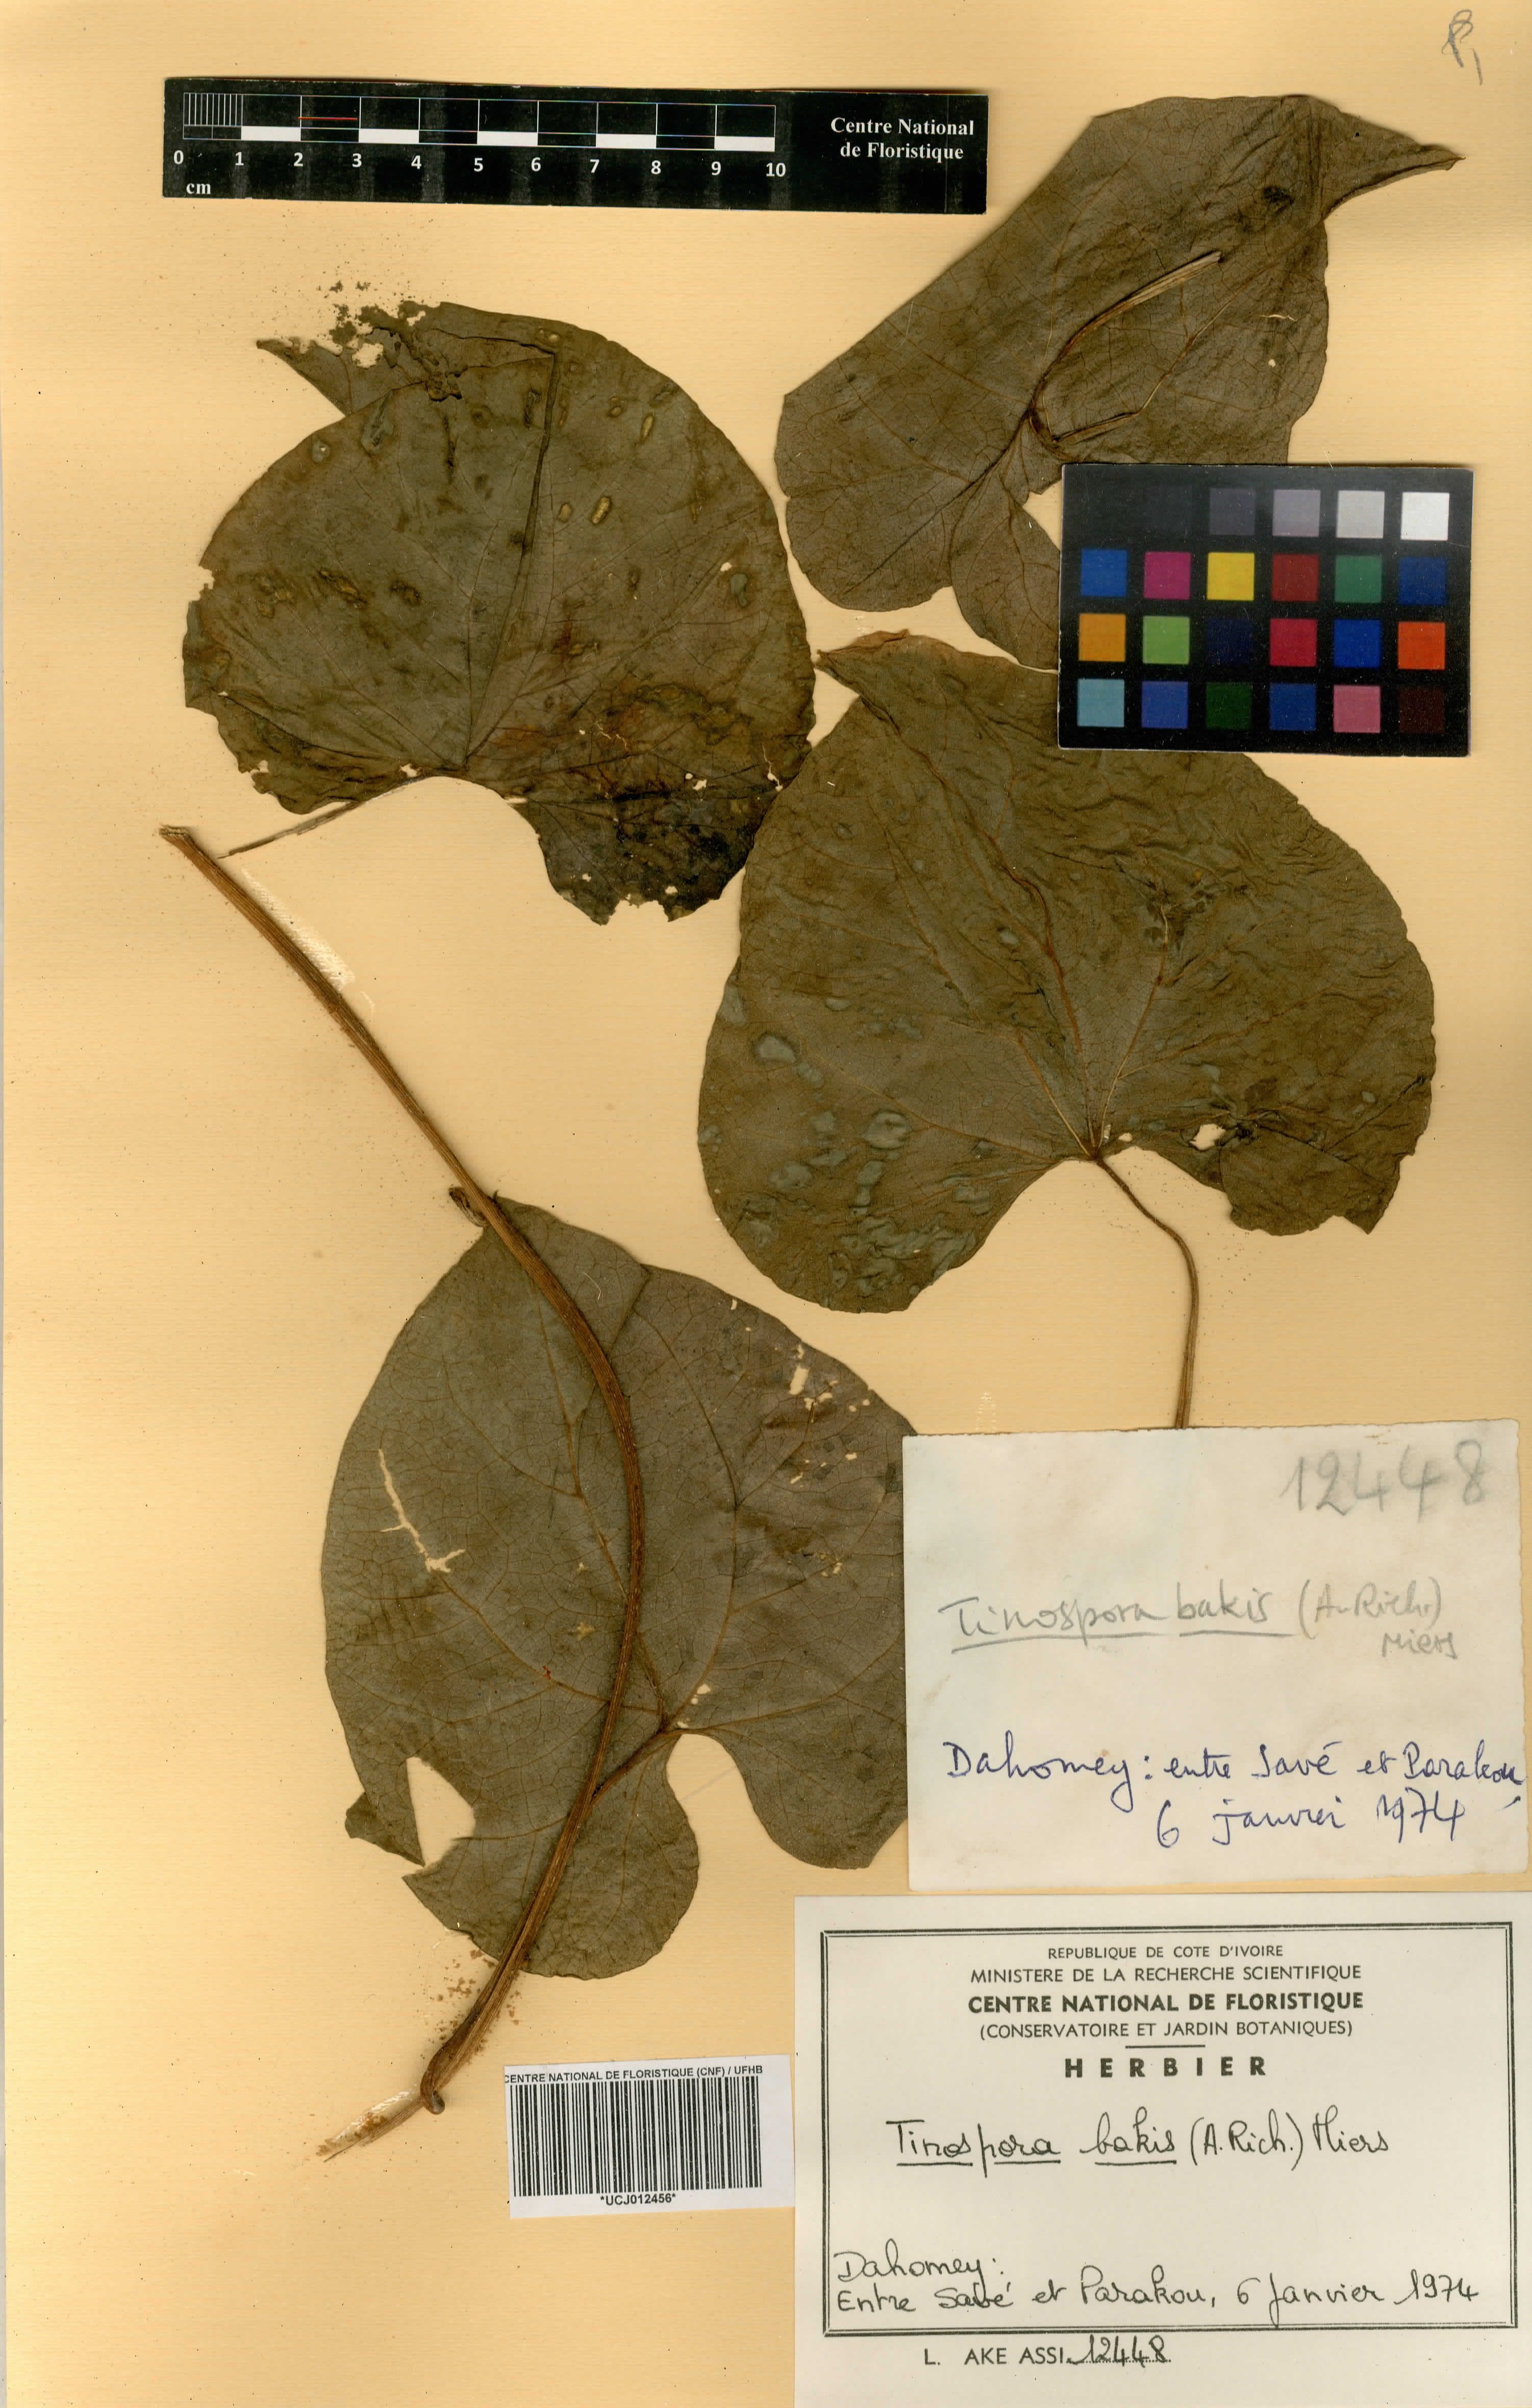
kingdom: Plantae
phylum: Tracheophyta
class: Magnoliopsida
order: Ranunculales
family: Menispermaceae
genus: Tinospora
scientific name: Tinospora bakis
